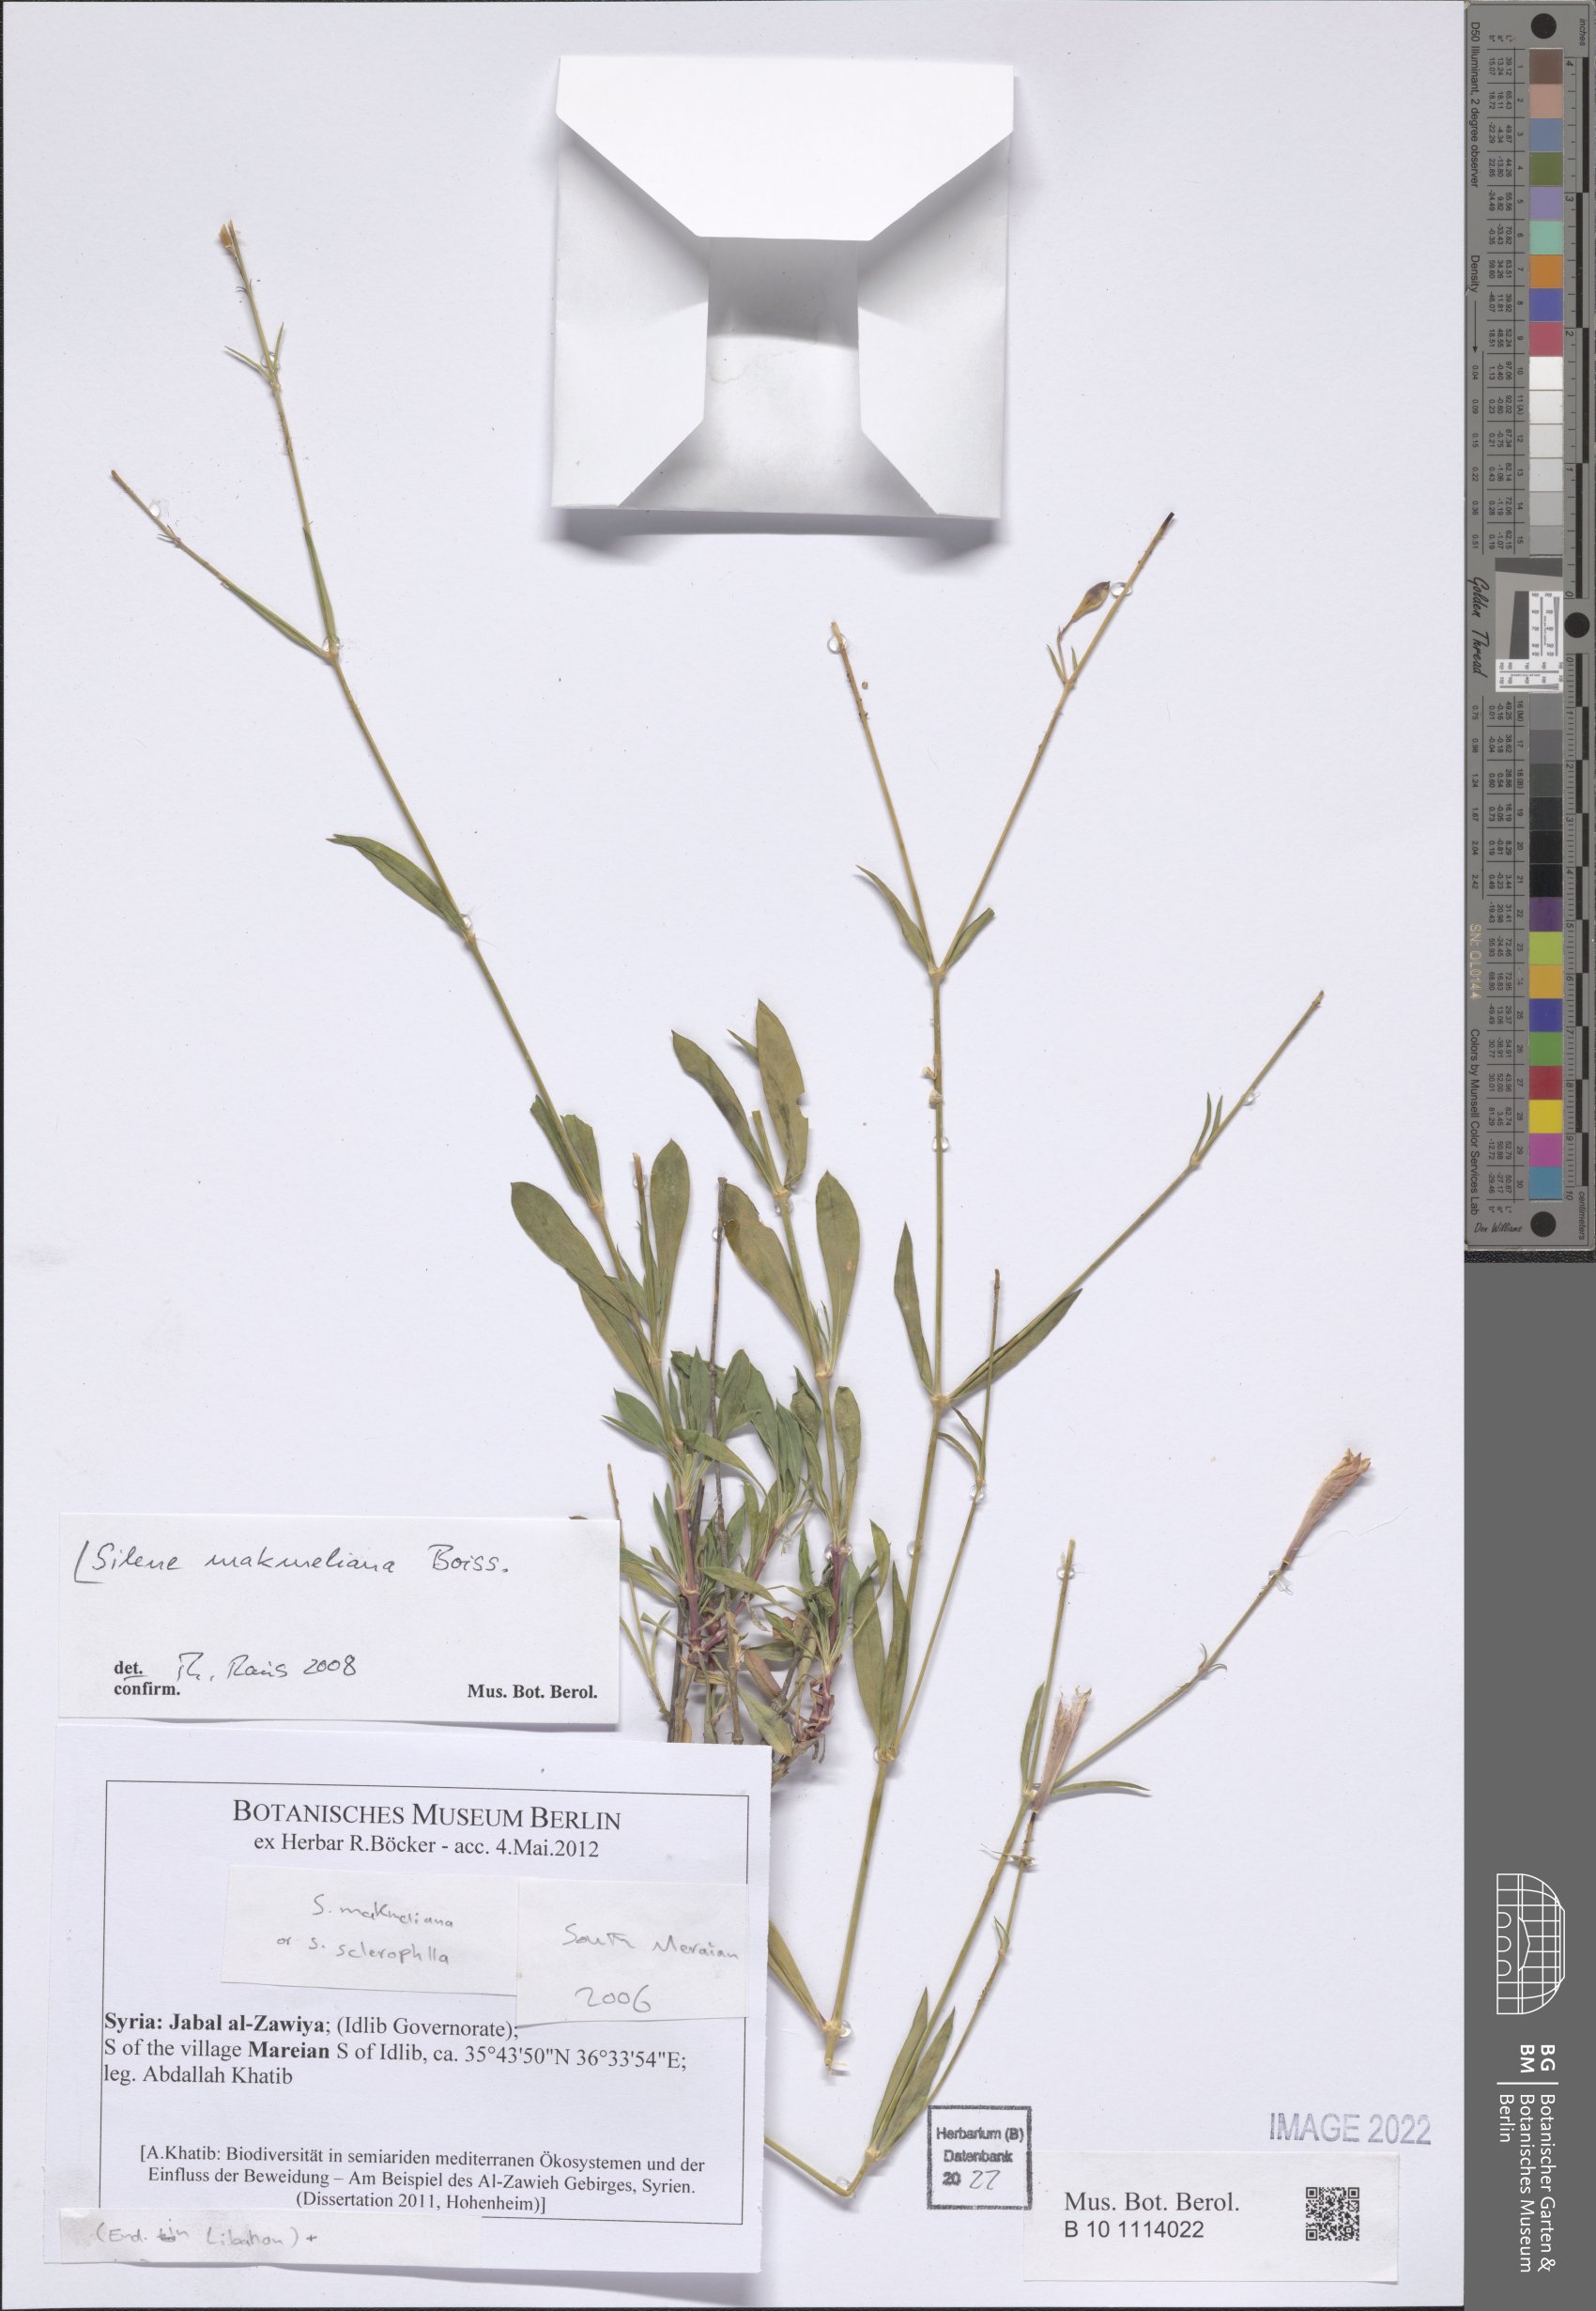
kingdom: Plantae
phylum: Tracheophyta
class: Magnoliopsida
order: Caryophyllales
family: Caryophyllaceae
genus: Silene
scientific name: Silene makmeliana
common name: Makmel catchfly
